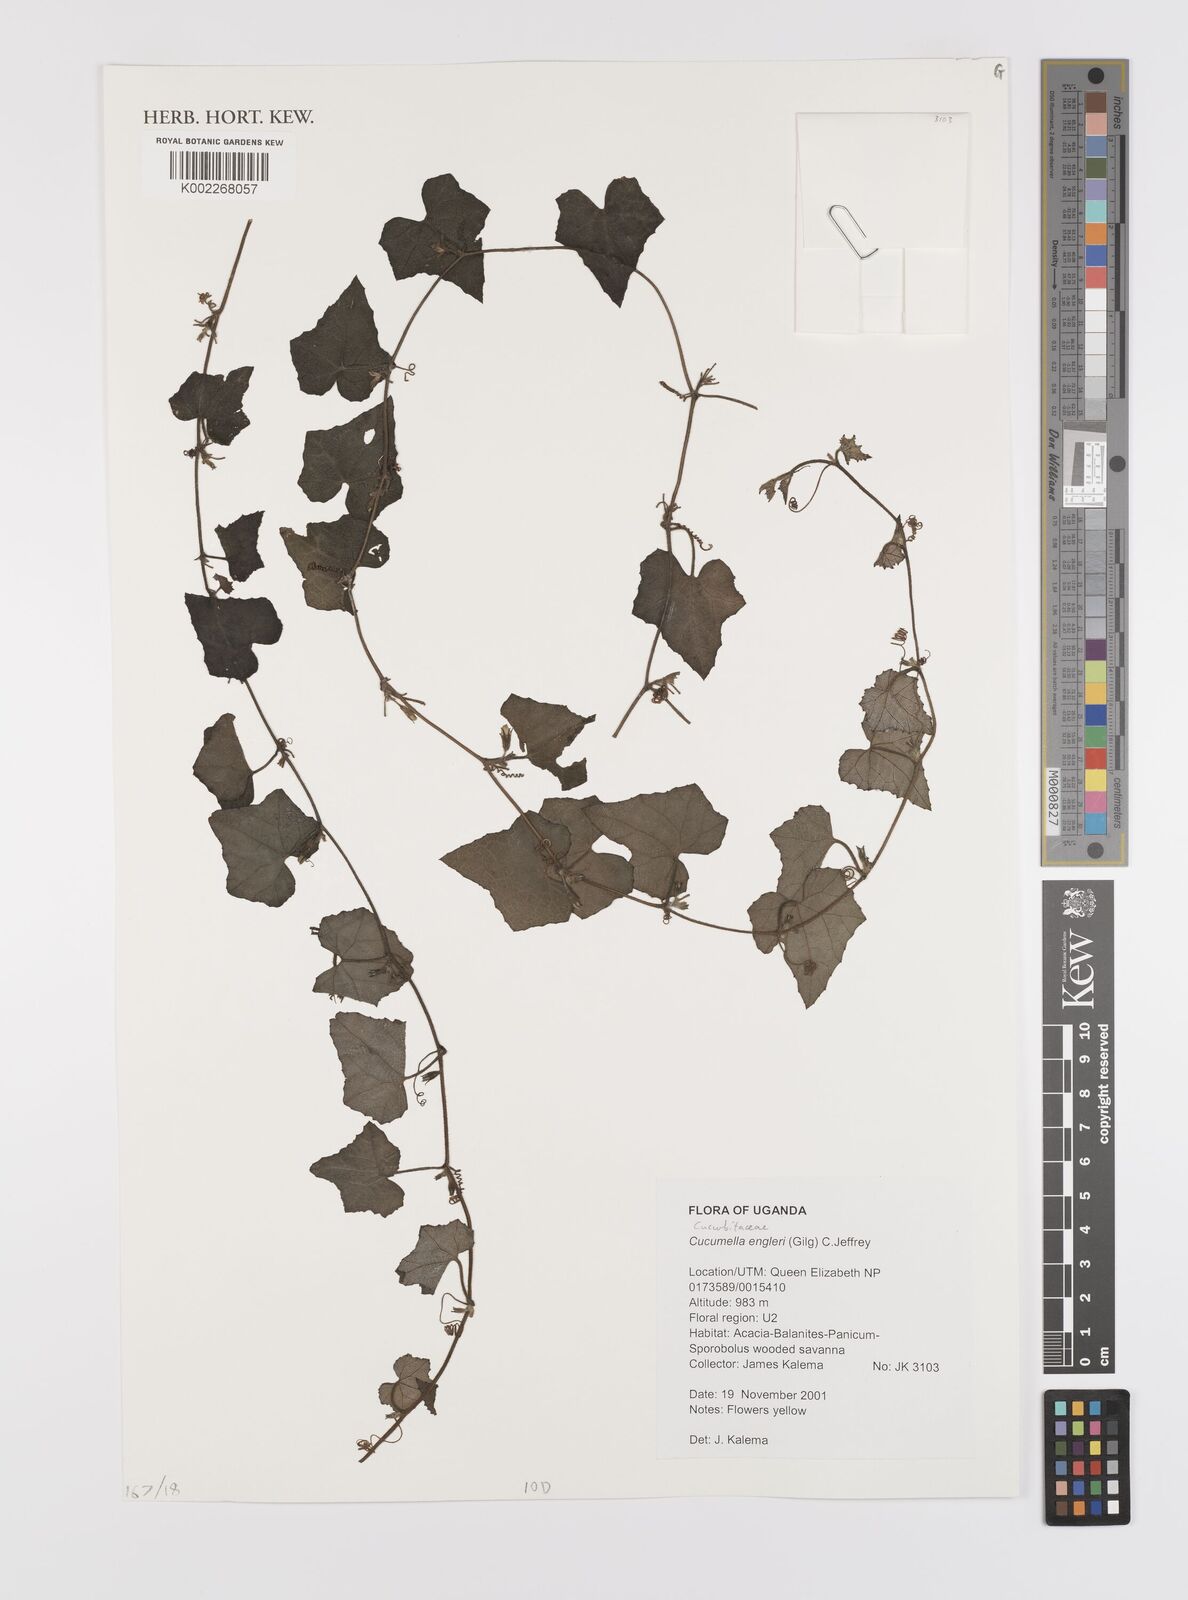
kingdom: Plantae
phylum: Tracheophyta
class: Magnoliopsida
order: Cucurbitales
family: Cucurbitaceae
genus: Cucumis
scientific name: Cucumis engleri
